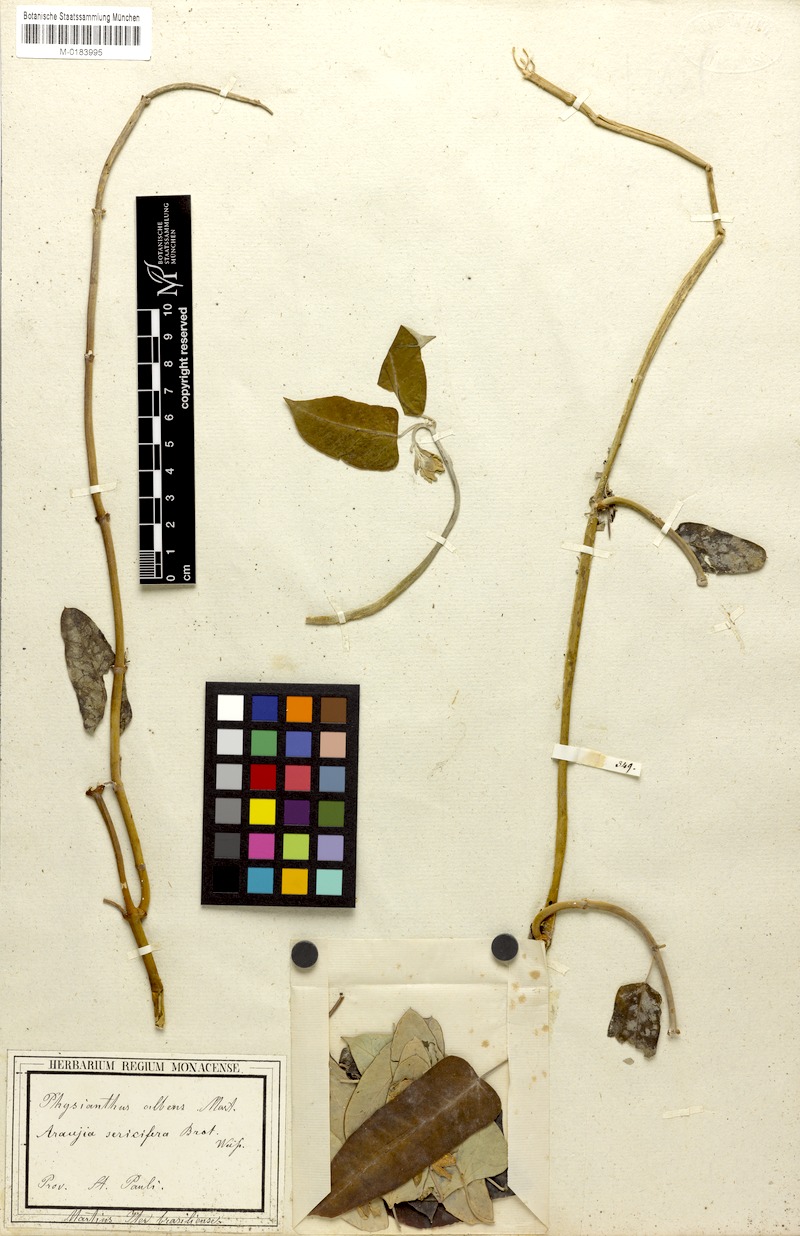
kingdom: Plantae
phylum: Tracheophyta
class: Magnoliopsida
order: Gentianales
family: Apocynaceae
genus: Araujia
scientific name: Araujia sericifera
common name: White bladderflower
